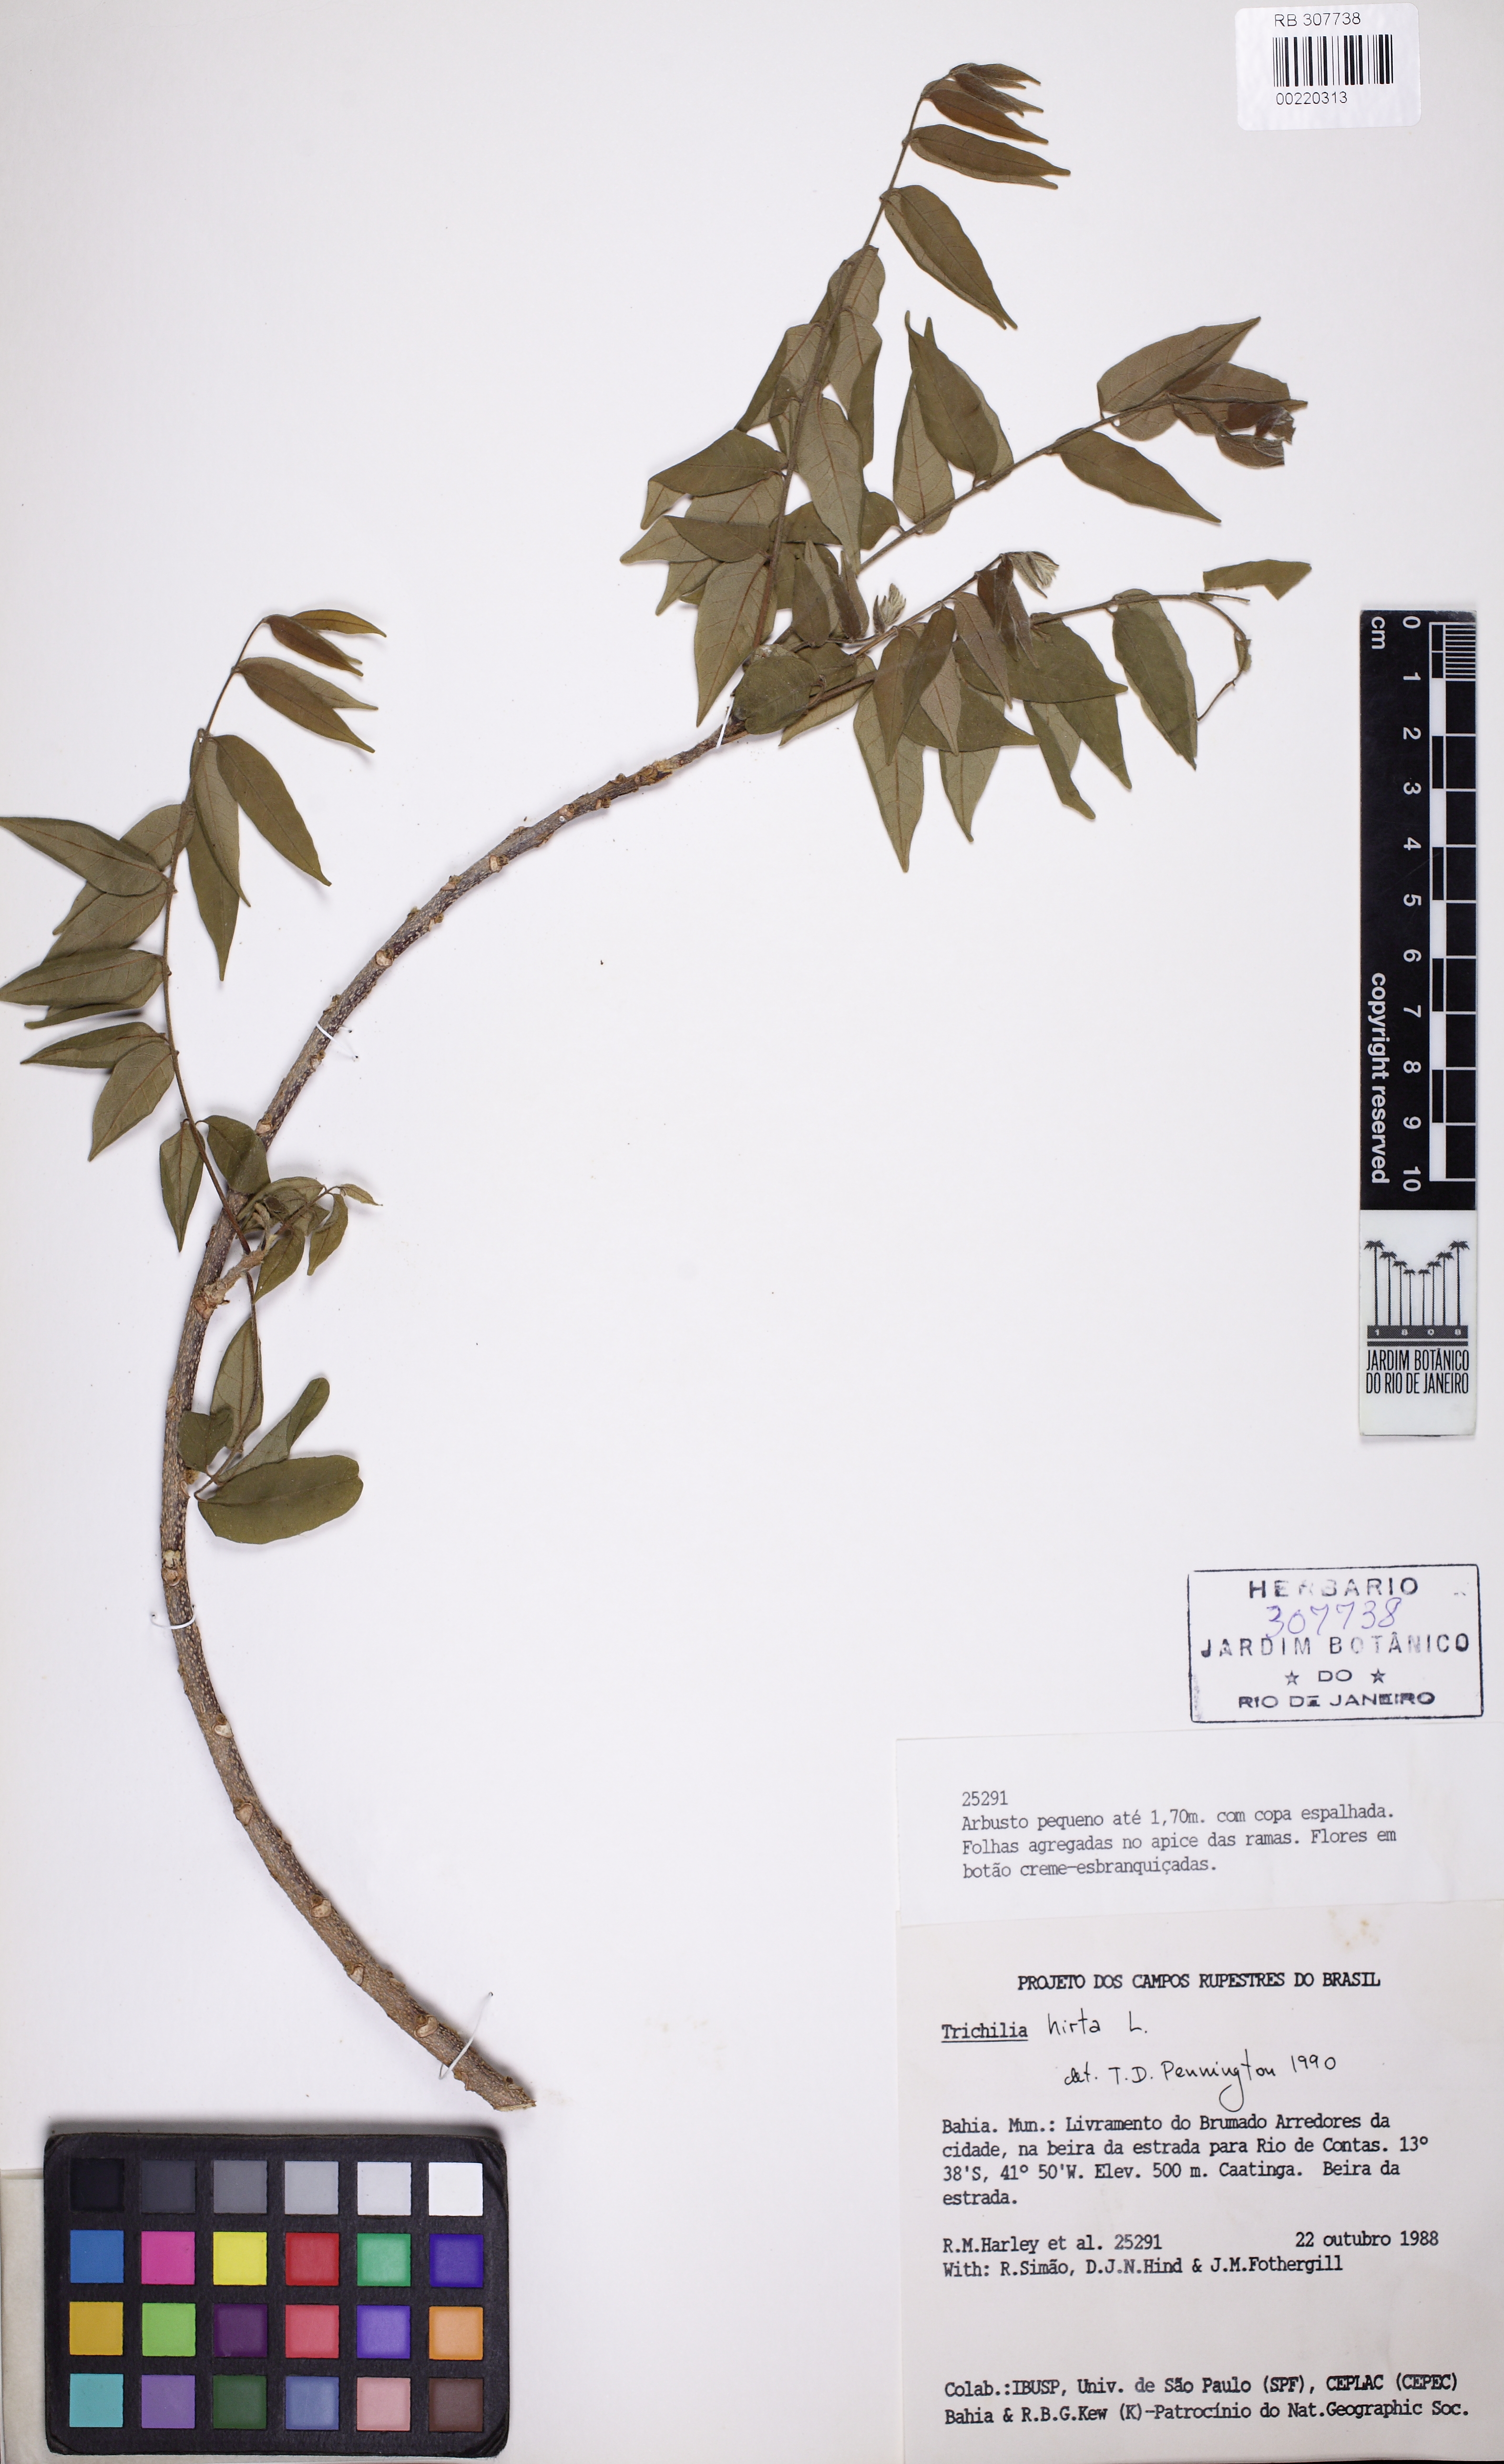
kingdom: Plantae
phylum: Tracheophyta
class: Magnoliopsida
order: Sapindales
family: Meliaceae
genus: Trichilia
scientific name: Trichilia hirta
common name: Red-cedar
